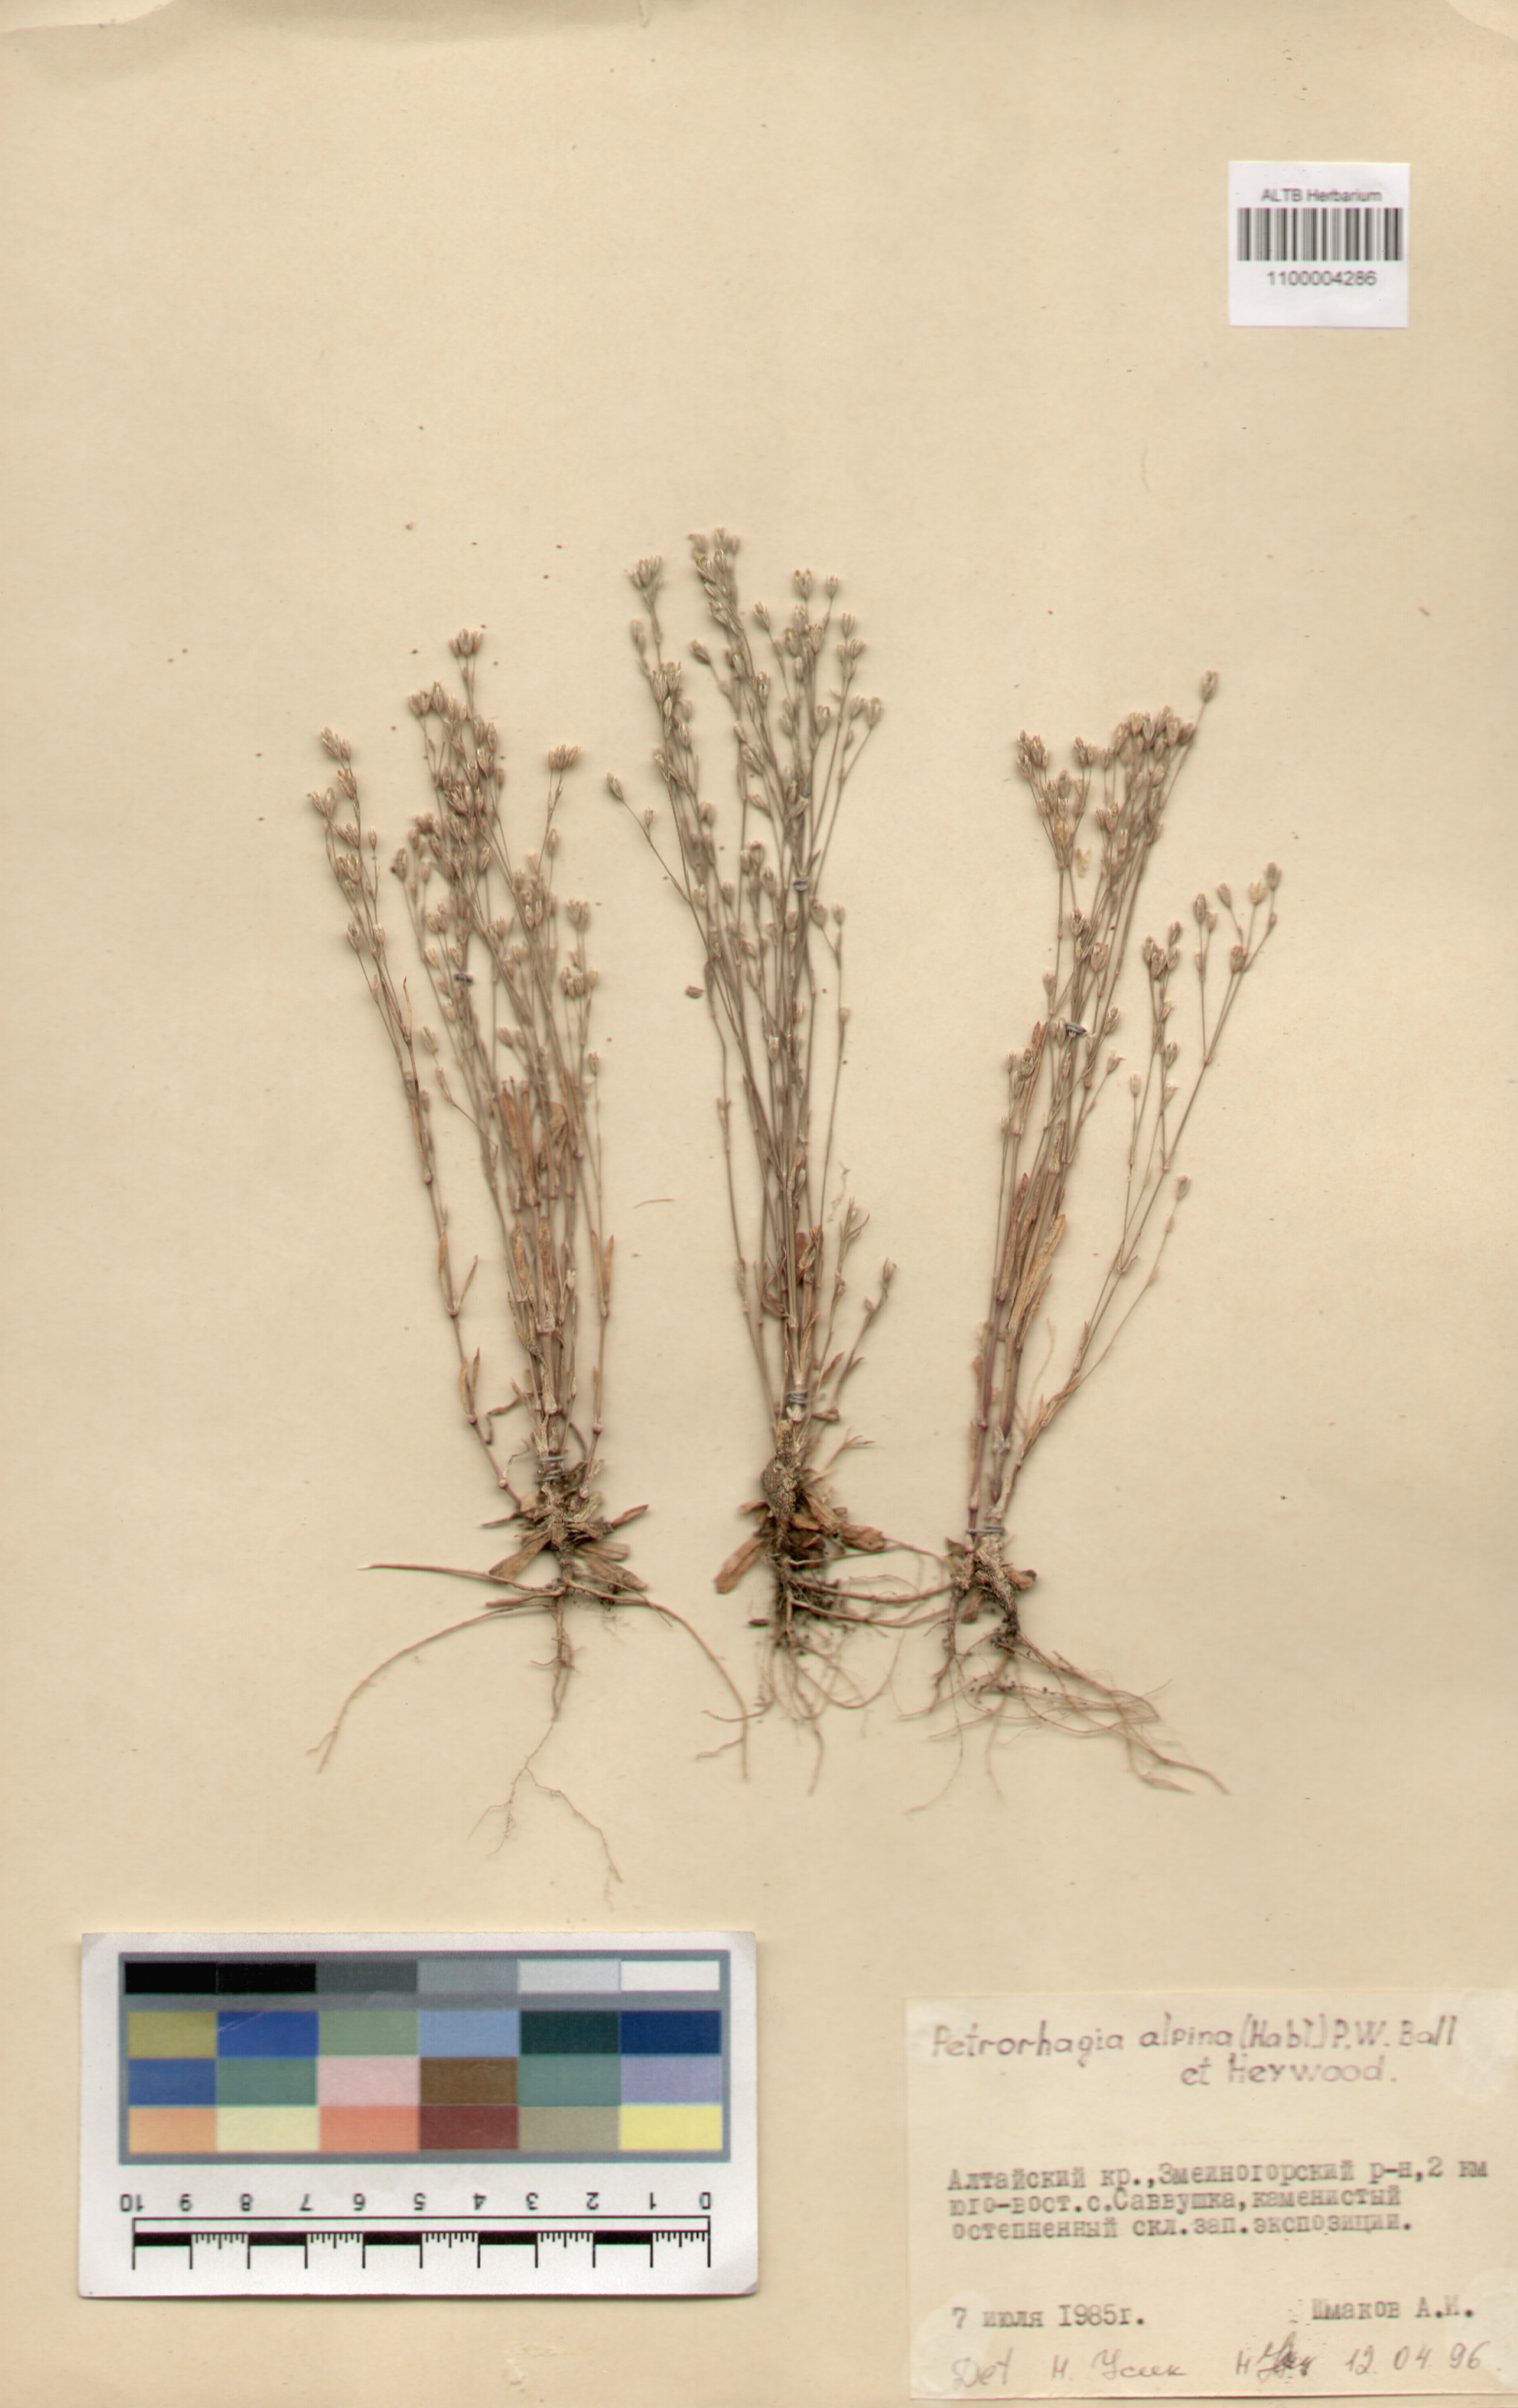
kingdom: Plantae
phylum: Tracheophyta
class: Magnoliopsida
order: Caryophyllales
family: Caryophyllaceae
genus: Petrorhagia
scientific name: Petrorhagia alpina
